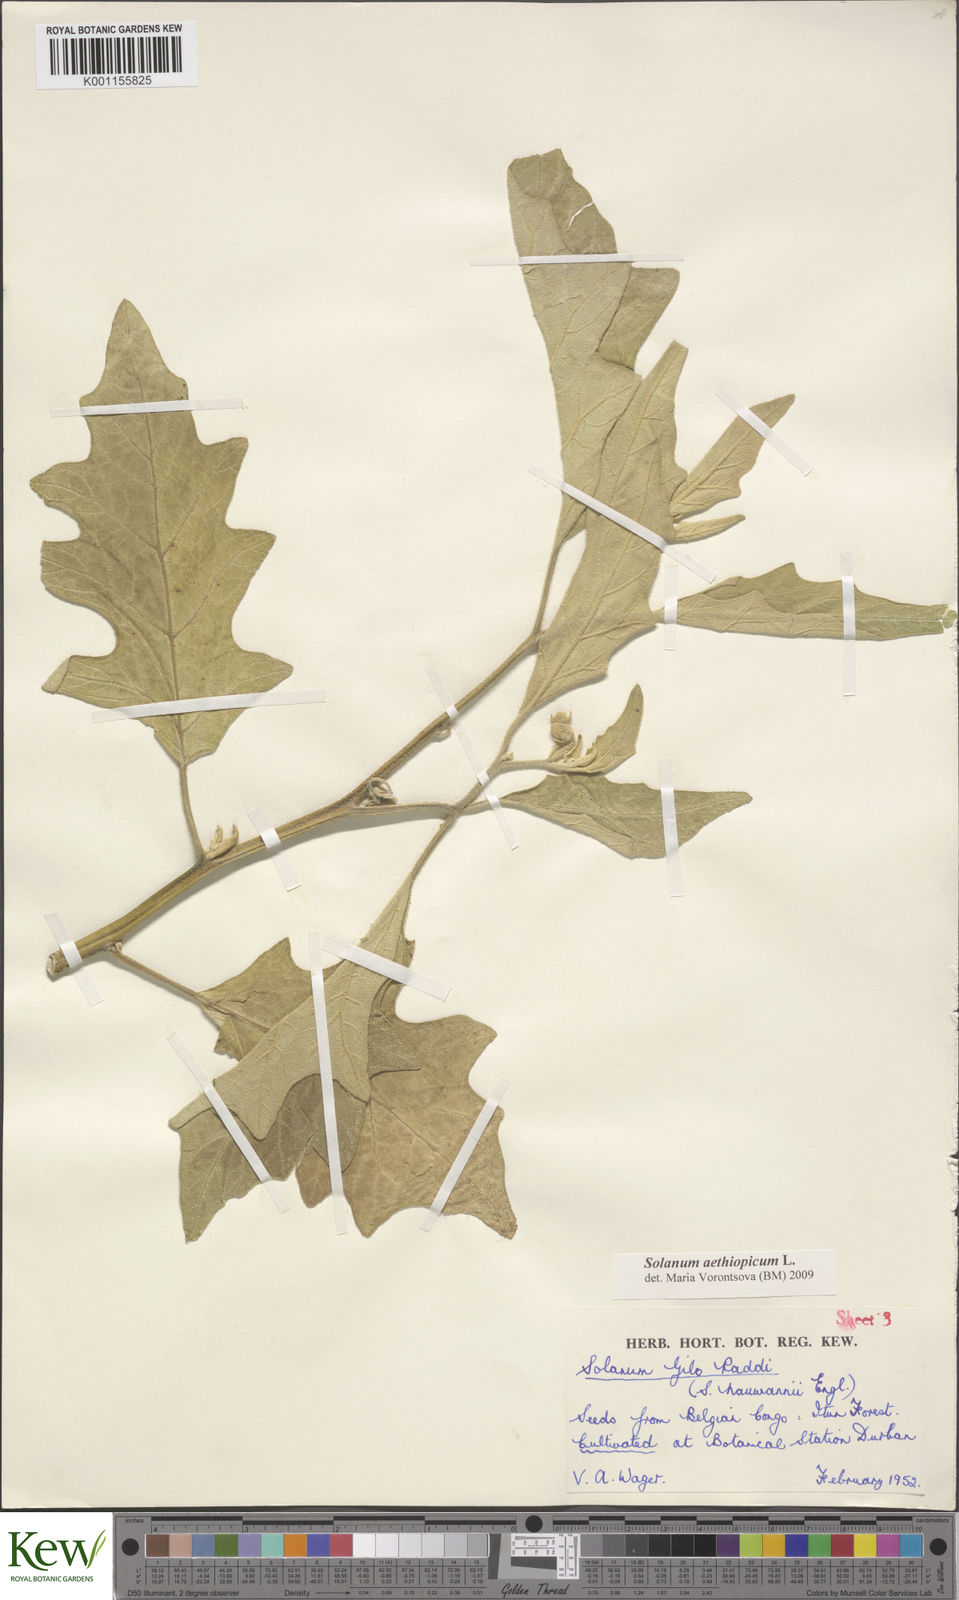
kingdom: Plantae
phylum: Tracheophyta
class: Magnoliopsida
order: Solanales
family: Solanaceae
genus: Solanum
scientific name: Solanum aethiopicum
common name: Gilo
